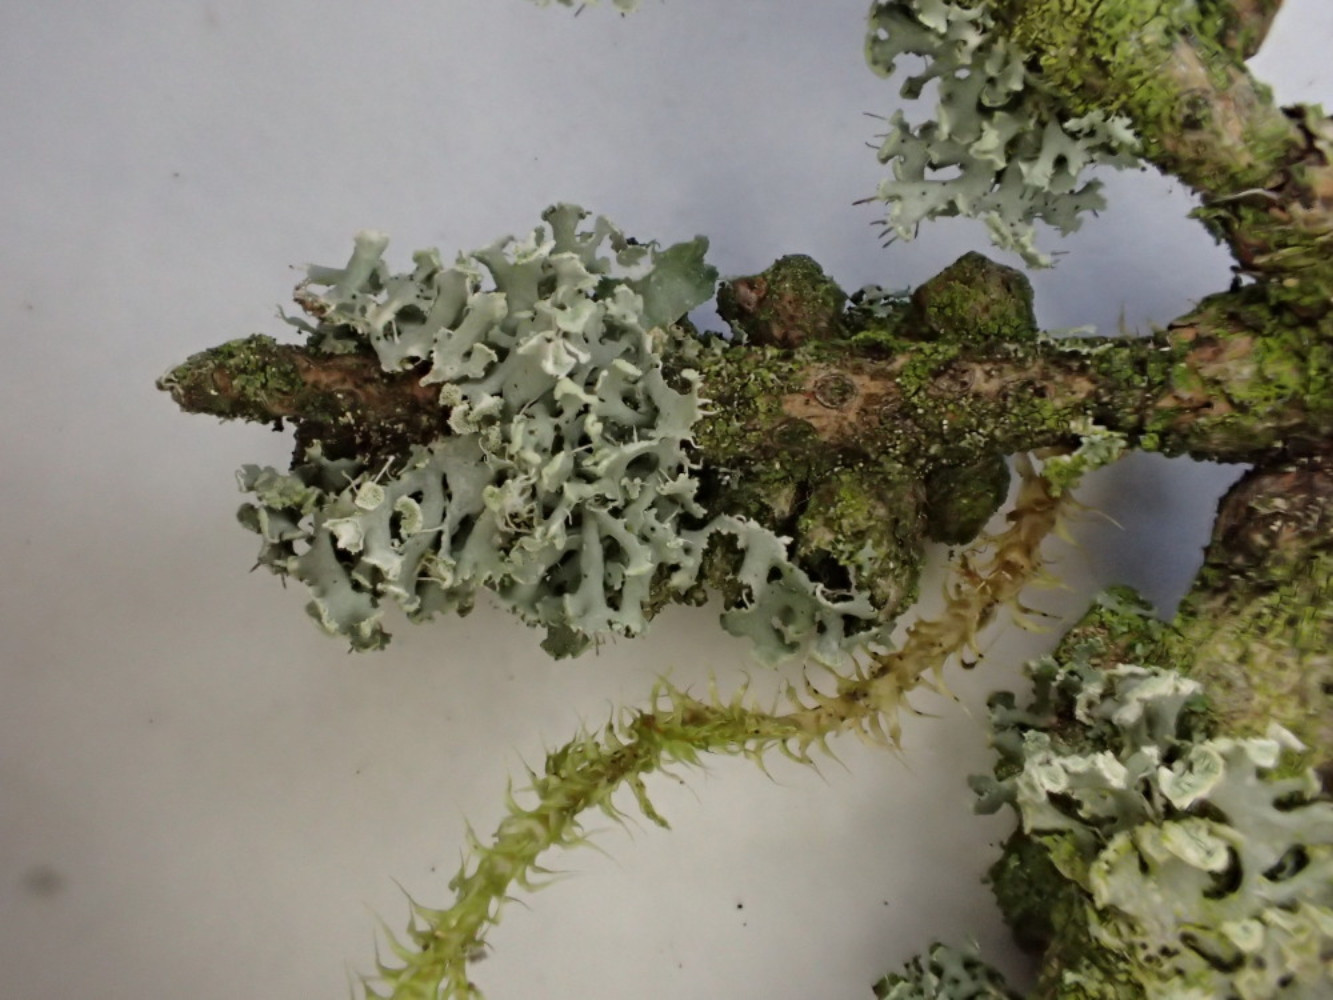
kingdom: Fungi
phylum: Ascomycota
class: Lecanoromycetes
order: Caliciales
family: Physciaceae
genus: Physcia
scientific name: Physcia tenella
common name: spæd rosetlav
